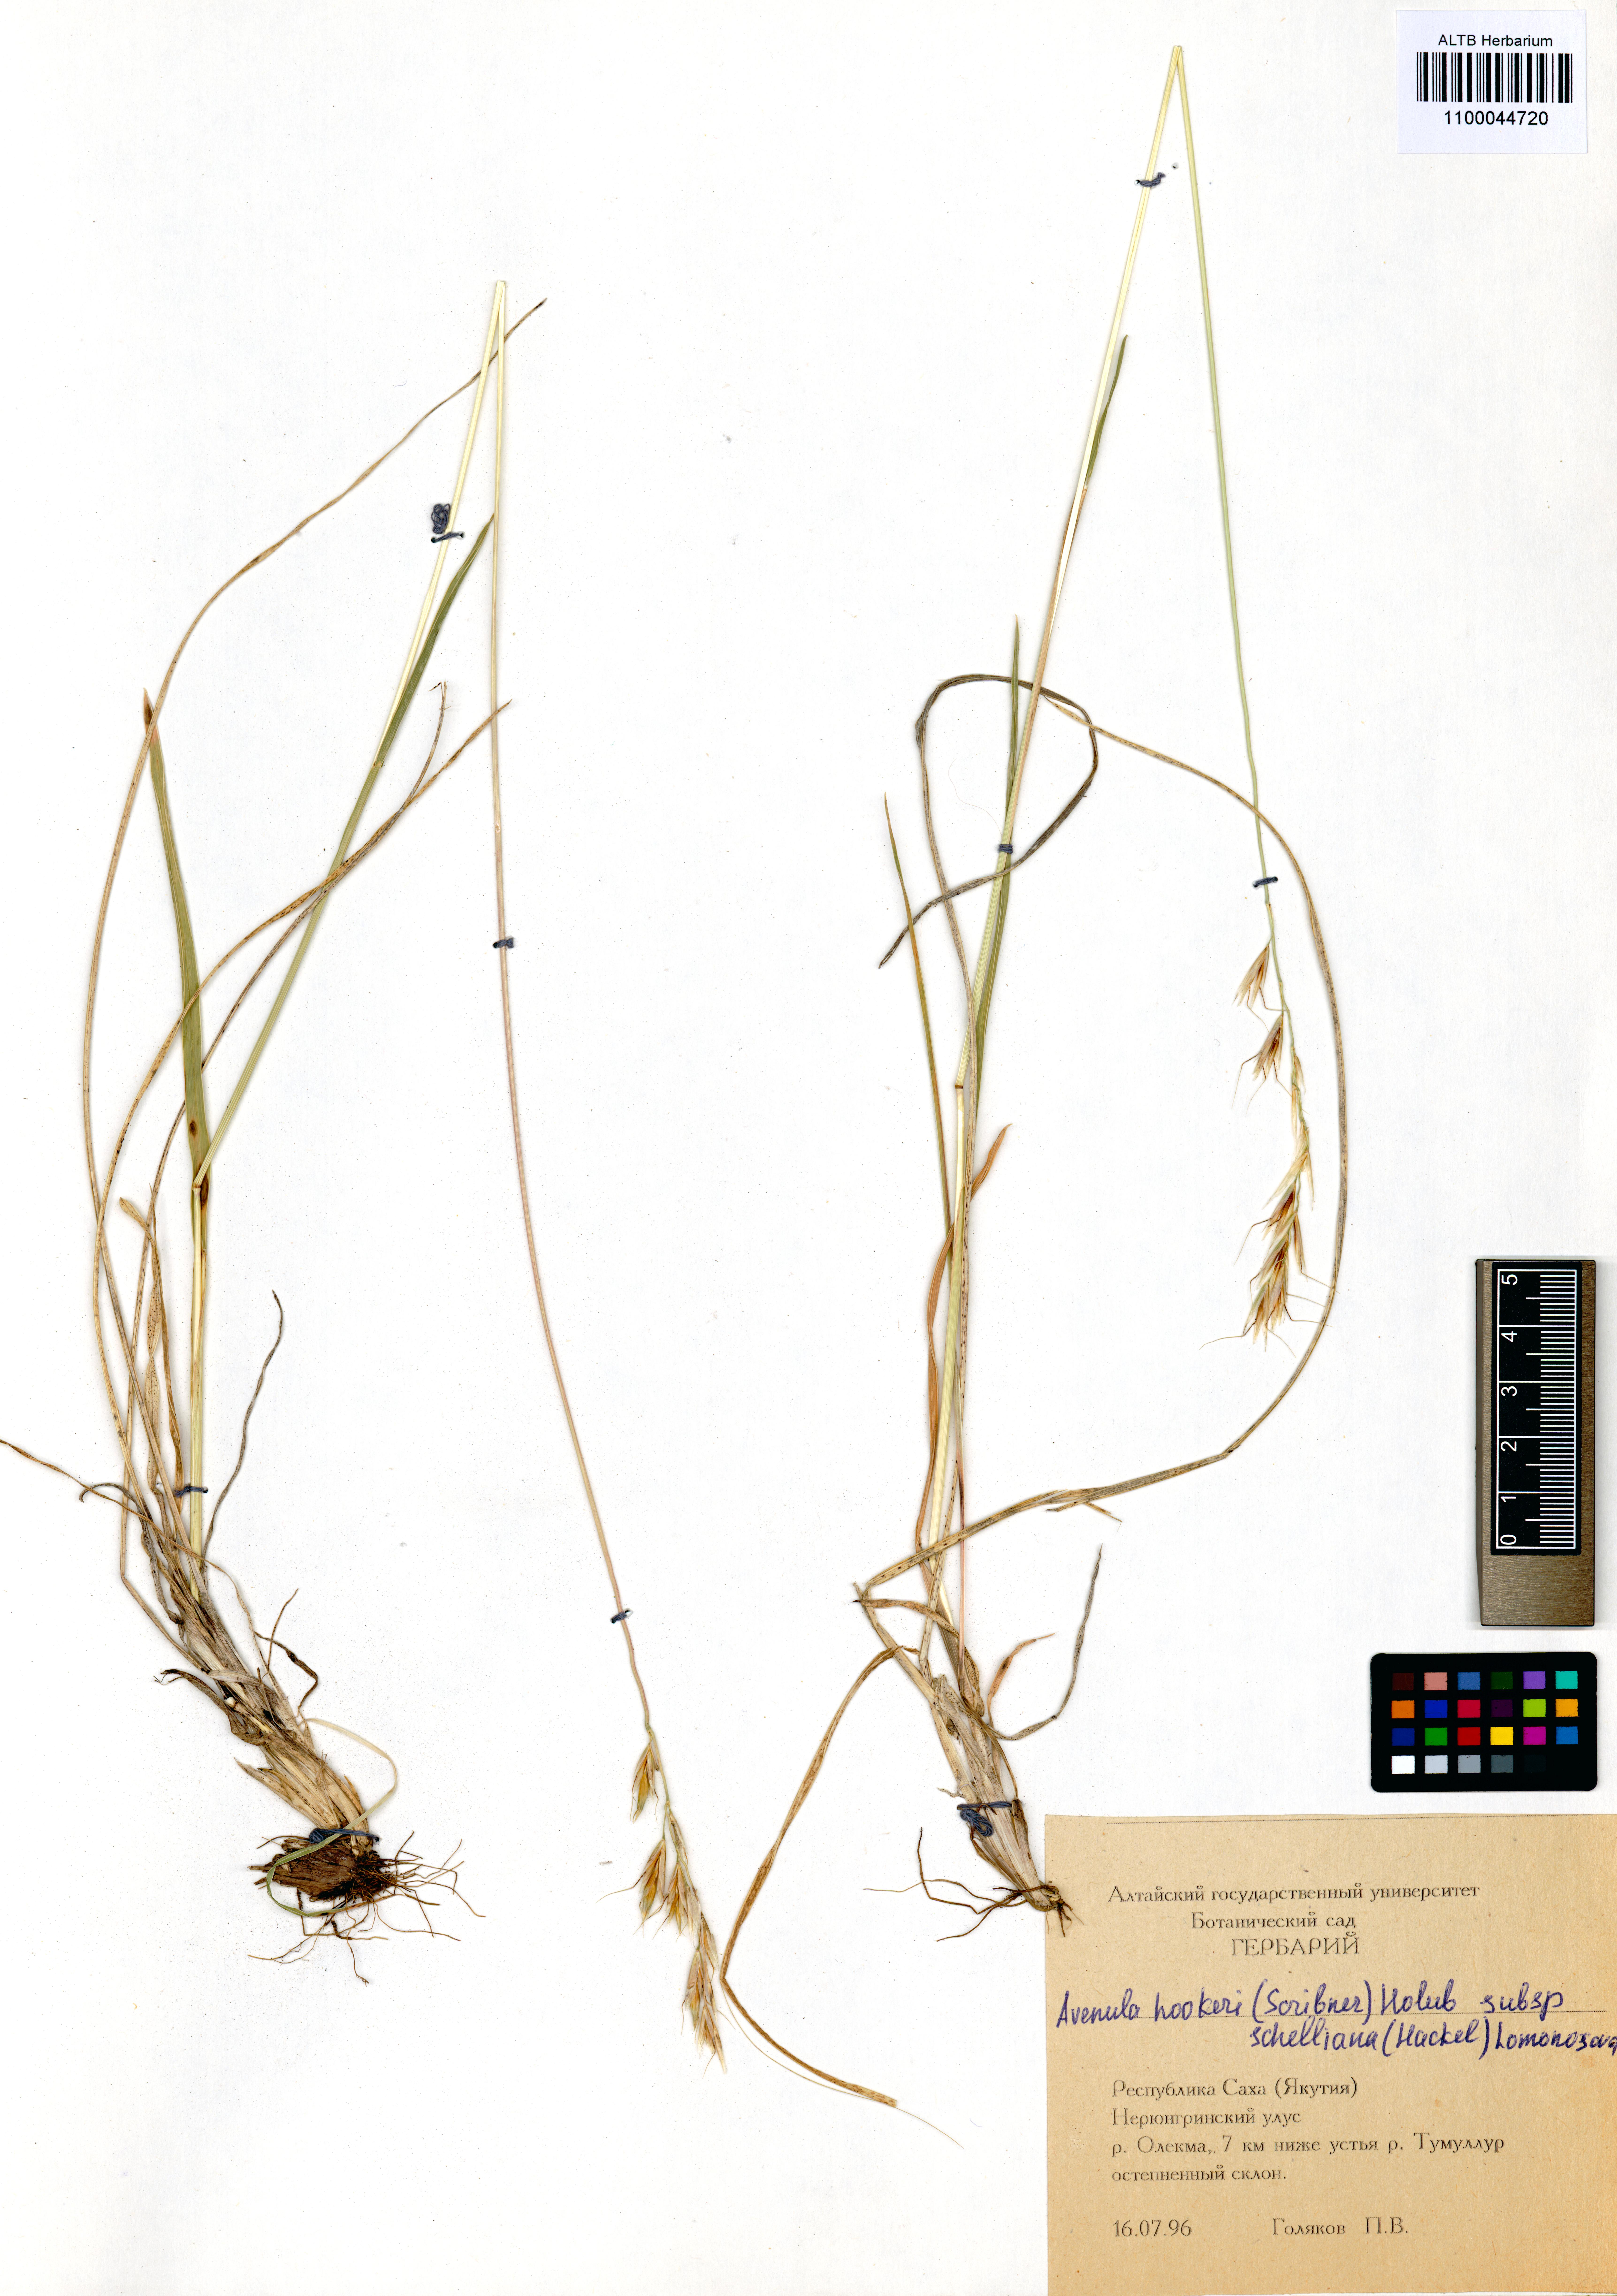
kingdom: Plantae
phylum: Tracheophyta
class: Liliopsida
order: Poales
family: Poaceae
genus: Helictochloa
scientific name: Helictochloa hookeri
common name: Hooker's alpine oatgrass
